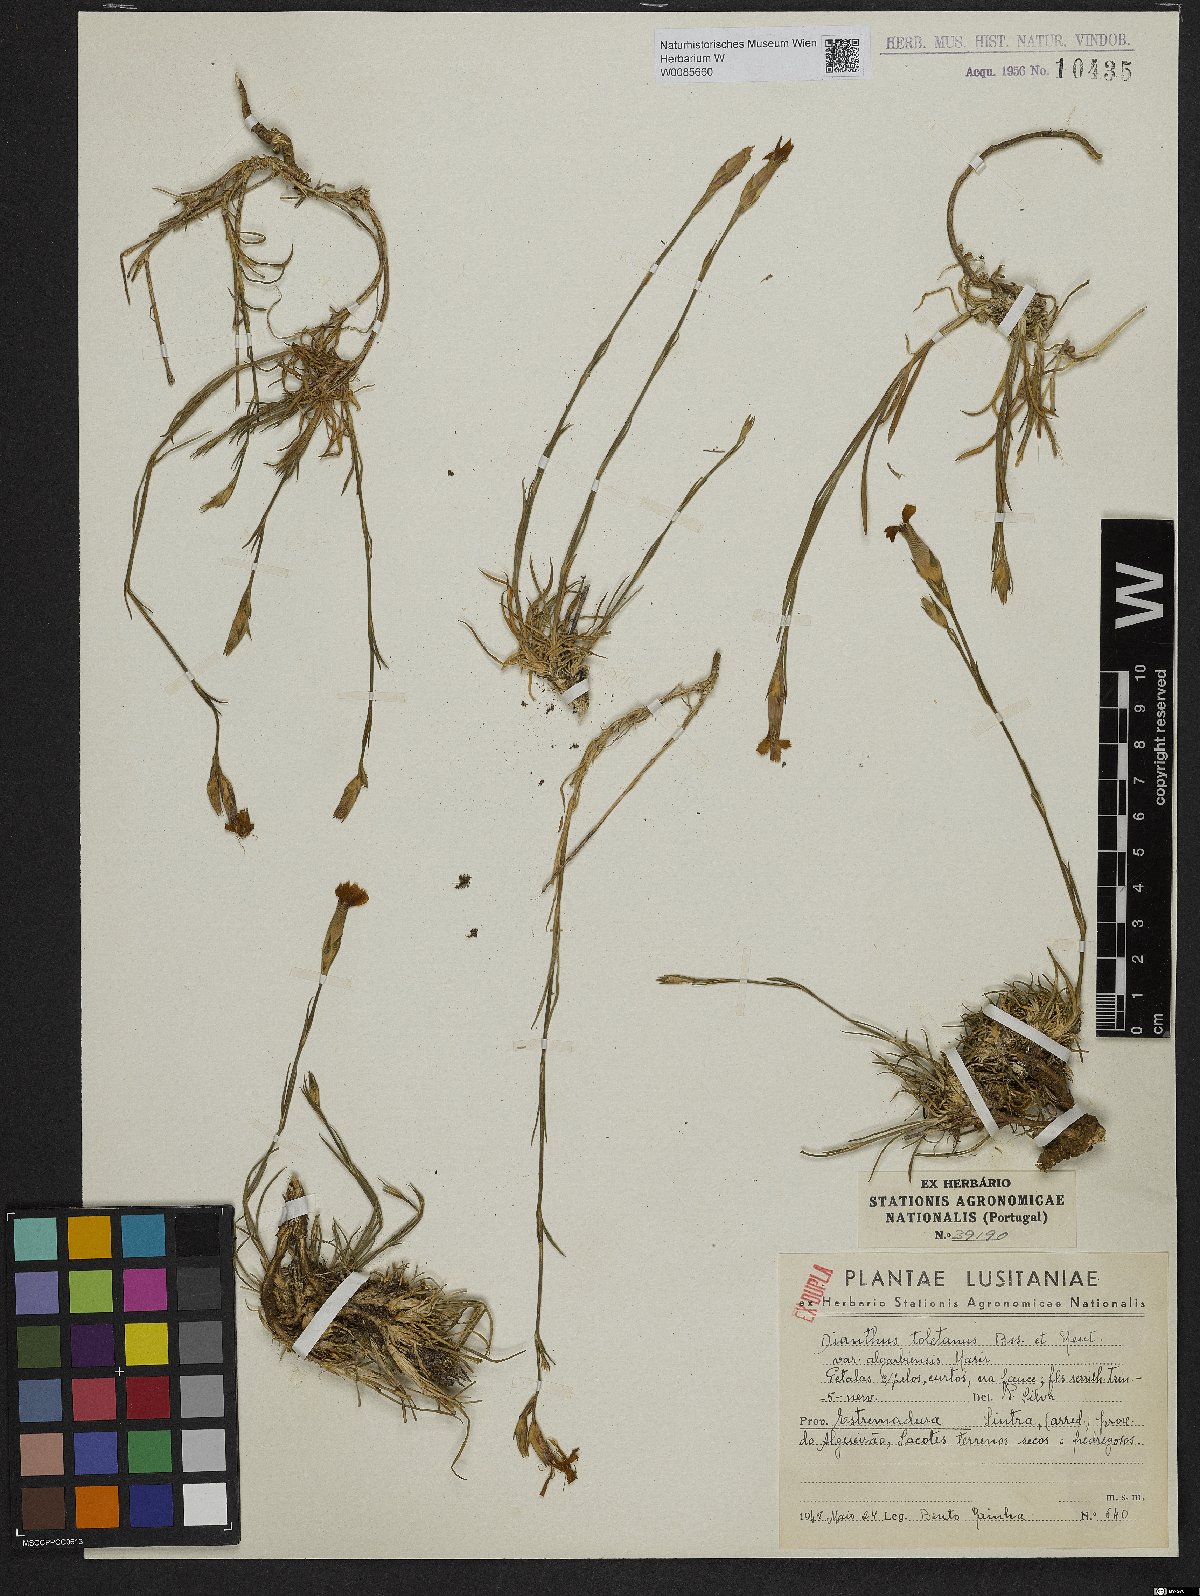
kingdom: Plantae
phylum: Tracheophyta
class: Magnoliopsida
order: Caryophyllales
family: Caryophyllaceae
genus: Dianthus
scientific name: Dianthus toletanus
